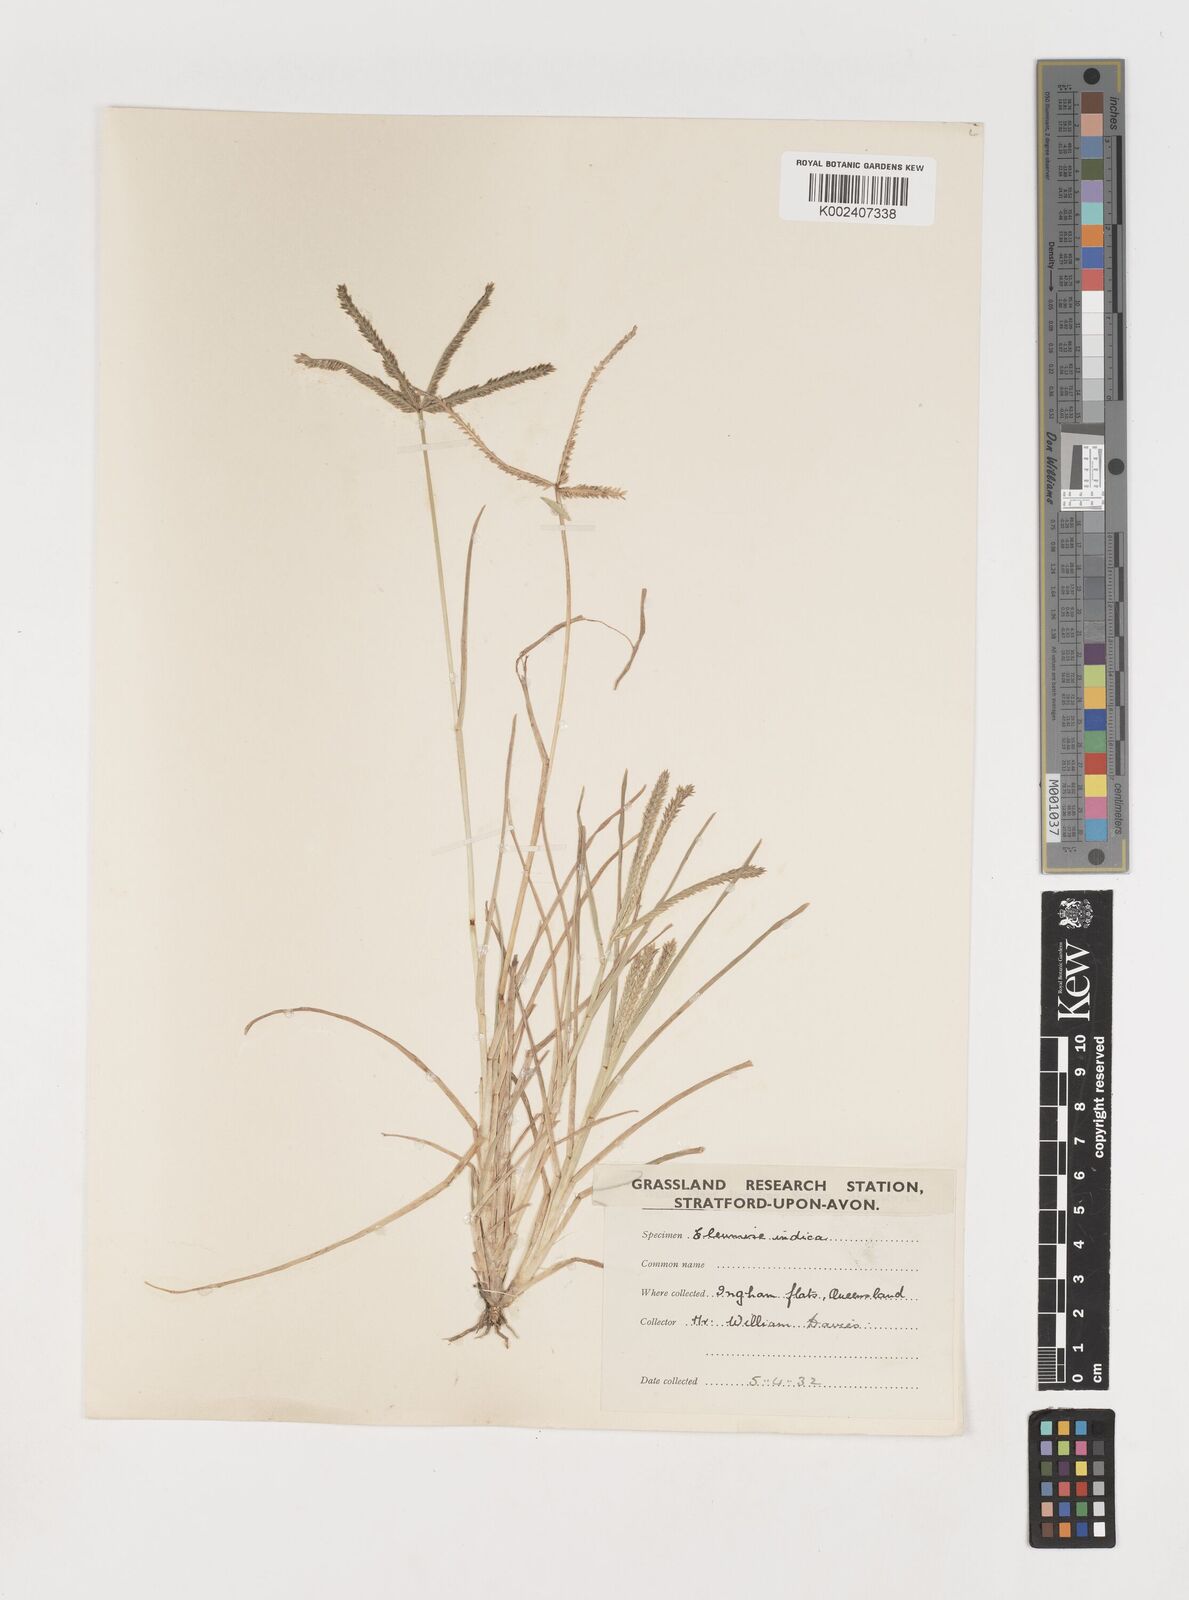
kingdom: Plantae
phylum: Tracheophyta
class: Liliopsida
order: Poales
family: Poaceae
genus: Eleusine
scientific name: Eleusine indica
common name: Yard-grass
